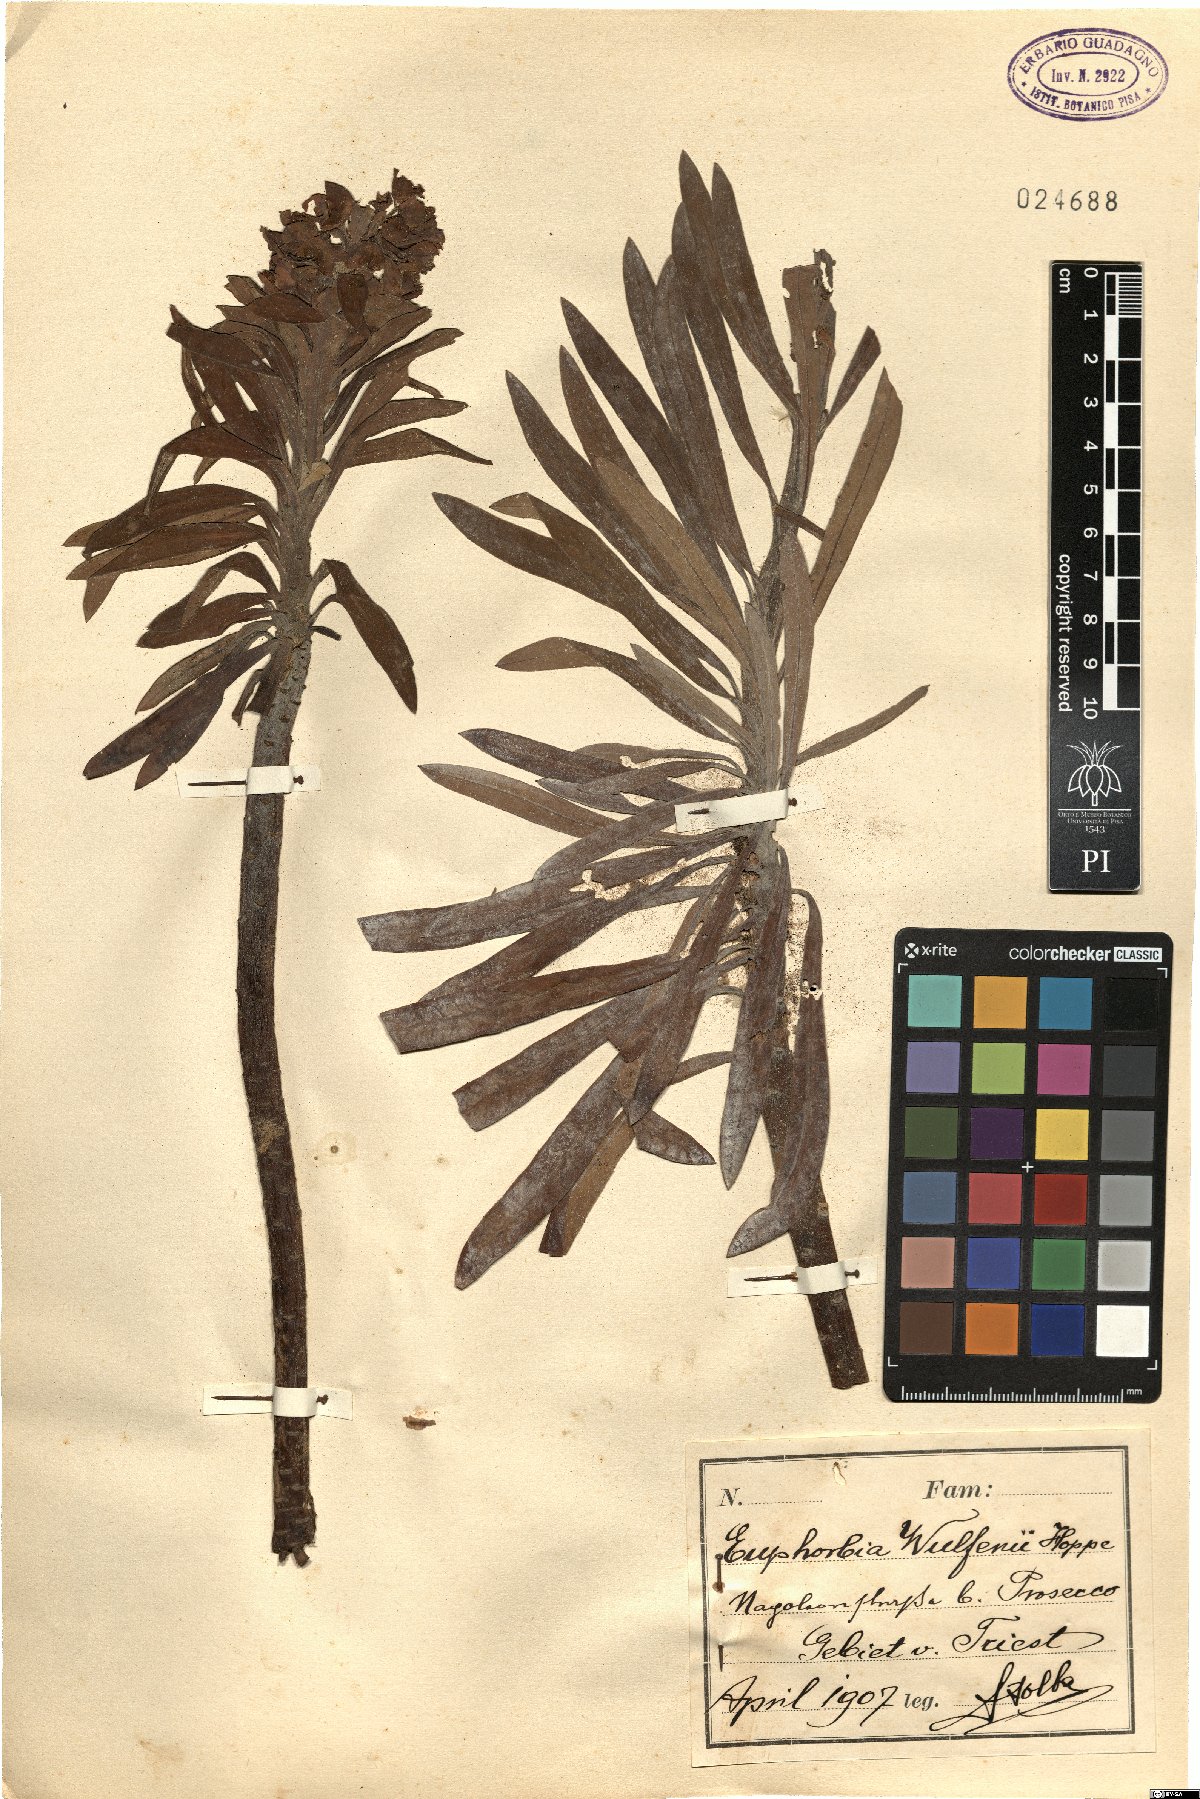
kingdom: Plantae
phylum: Tracheophyta
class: Magnoliopsida
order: Malpighiales
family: Euphorbiaceae
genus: Euphorbia
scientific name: Euphorbia characias
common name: Mediterranean spurge
